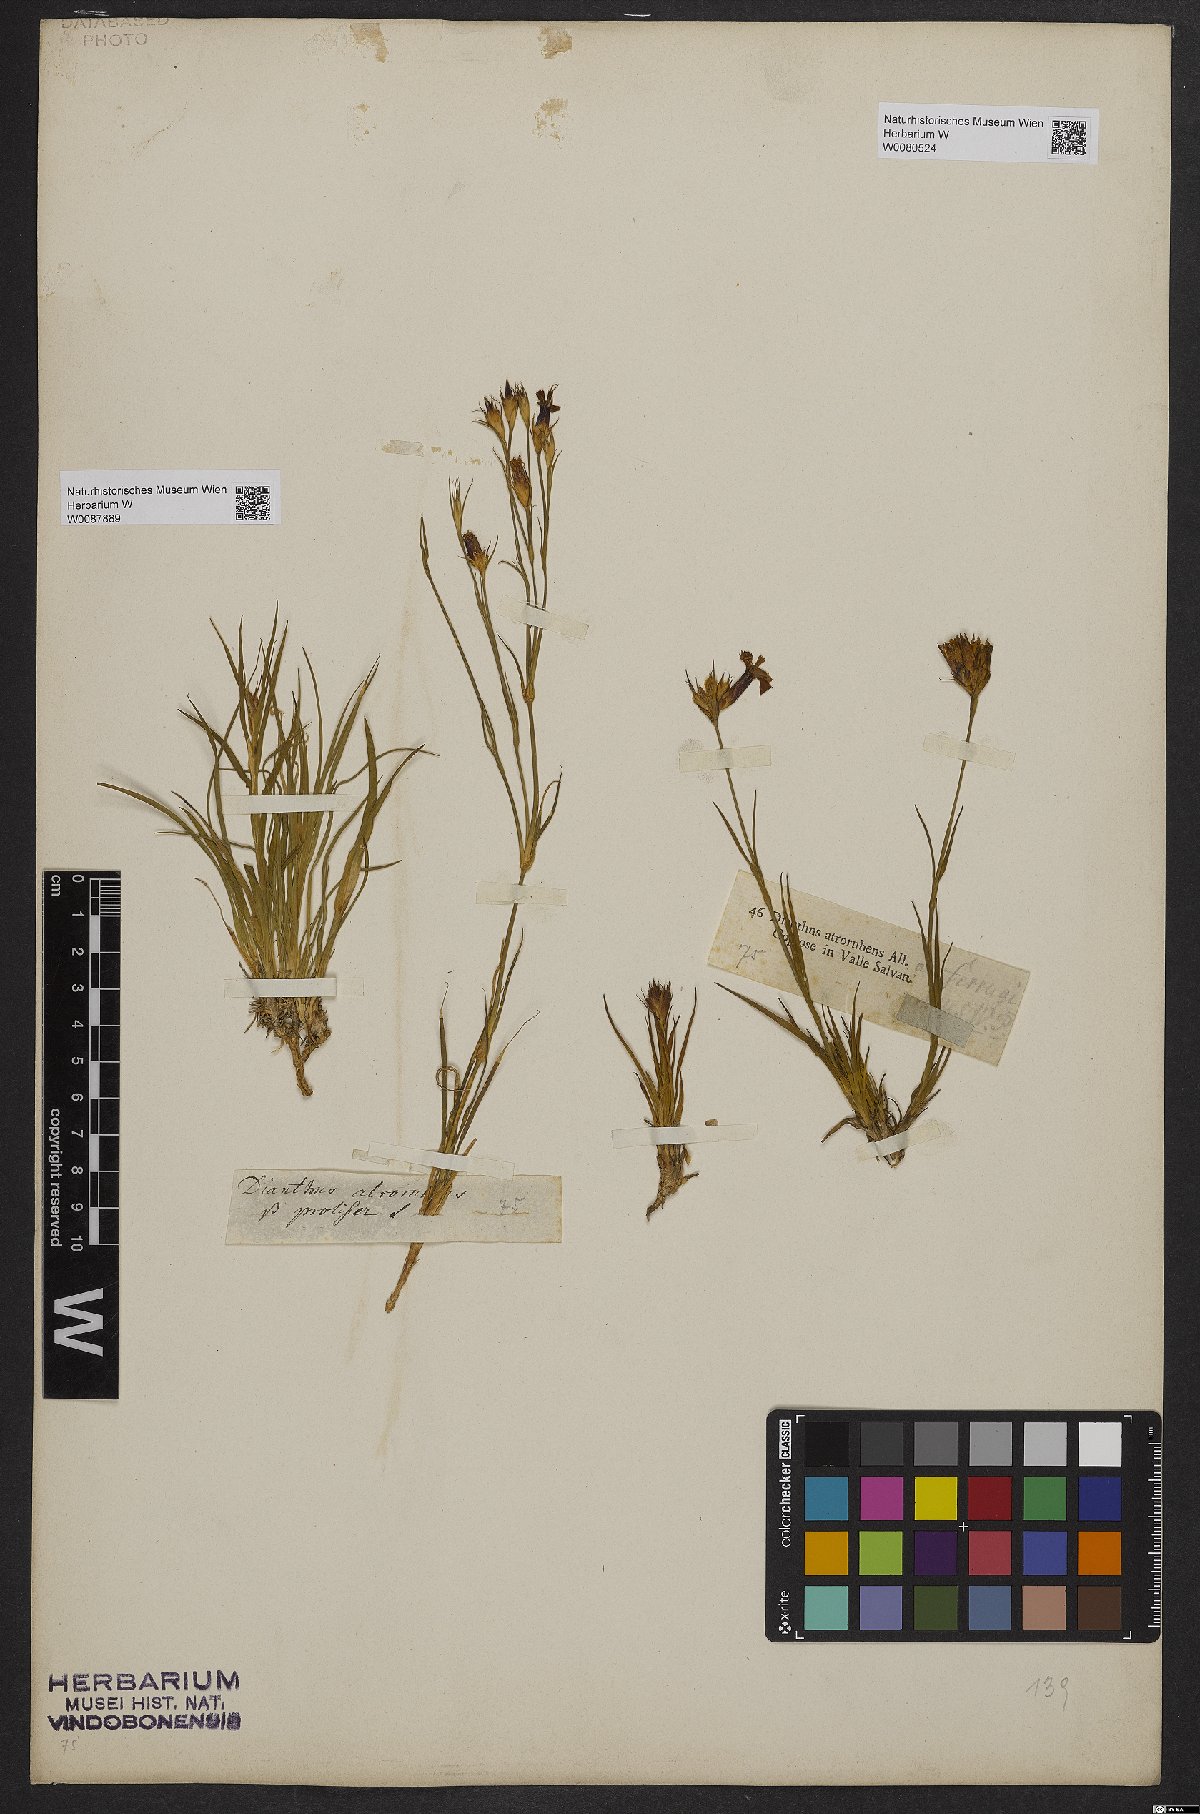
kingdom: Plantae
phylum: Tracheophyta
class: Magnoliopsida
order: Caryophyllales
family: Caryophyllaceae
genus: Dianthus
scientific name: Dianthus carthusianorum
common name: Carthusian pink
